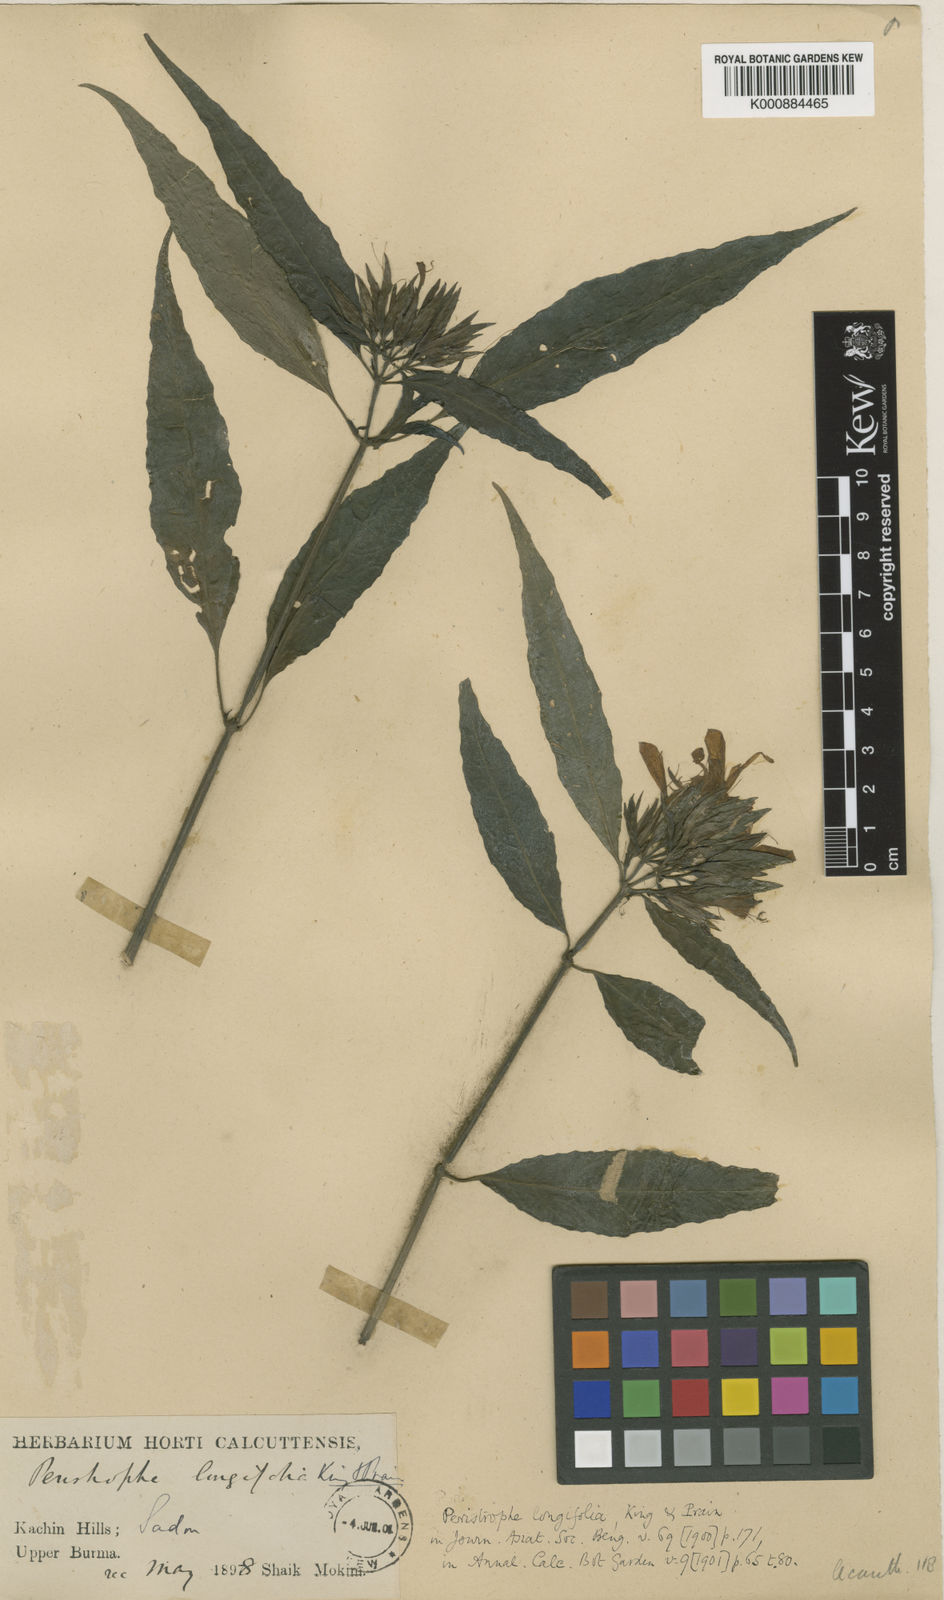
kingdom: Plantae
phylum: Tracheophyta
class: Magnoliopsida
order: Lamiales
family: Acanthaceae
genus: Dicliptera
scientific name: Dicliptera longifolia
